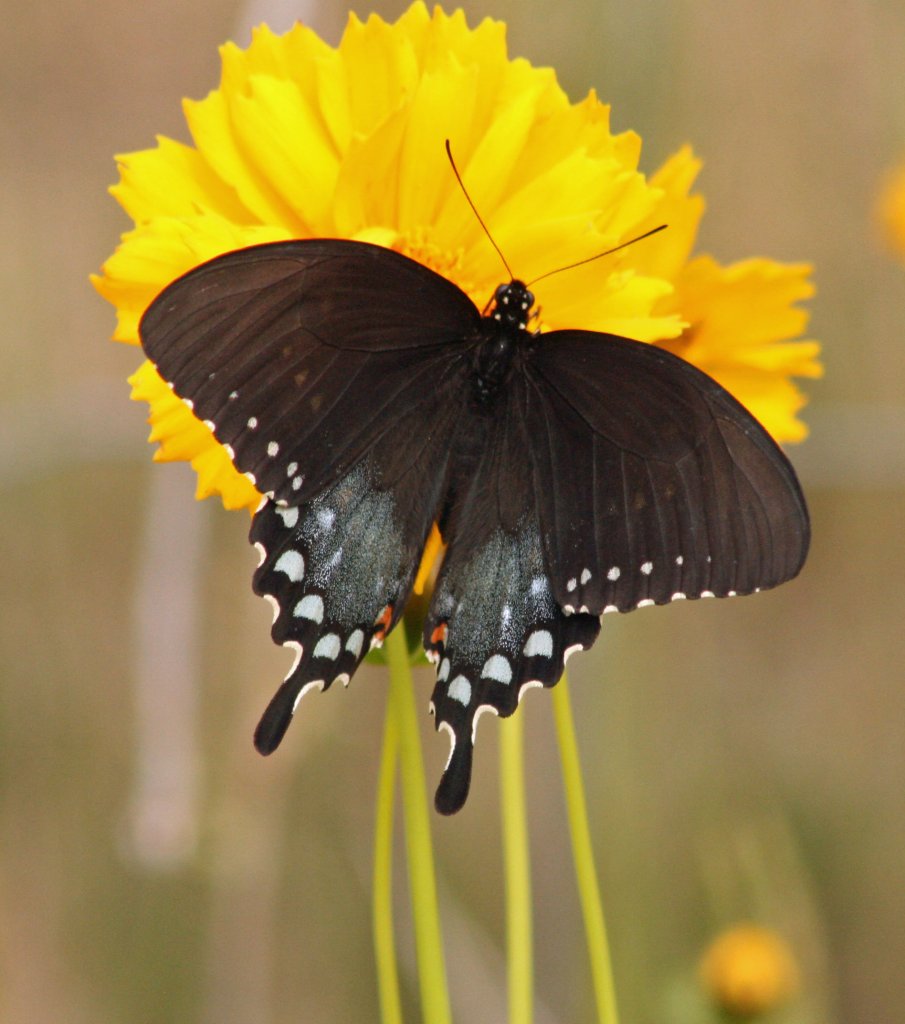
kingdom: Animalia
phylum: Arthropoda
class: Insecta
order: Lepidoptera
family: Papilionidae
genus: Pterourus
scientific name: Pterourus troilus
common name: Spicebush Swallowtail
